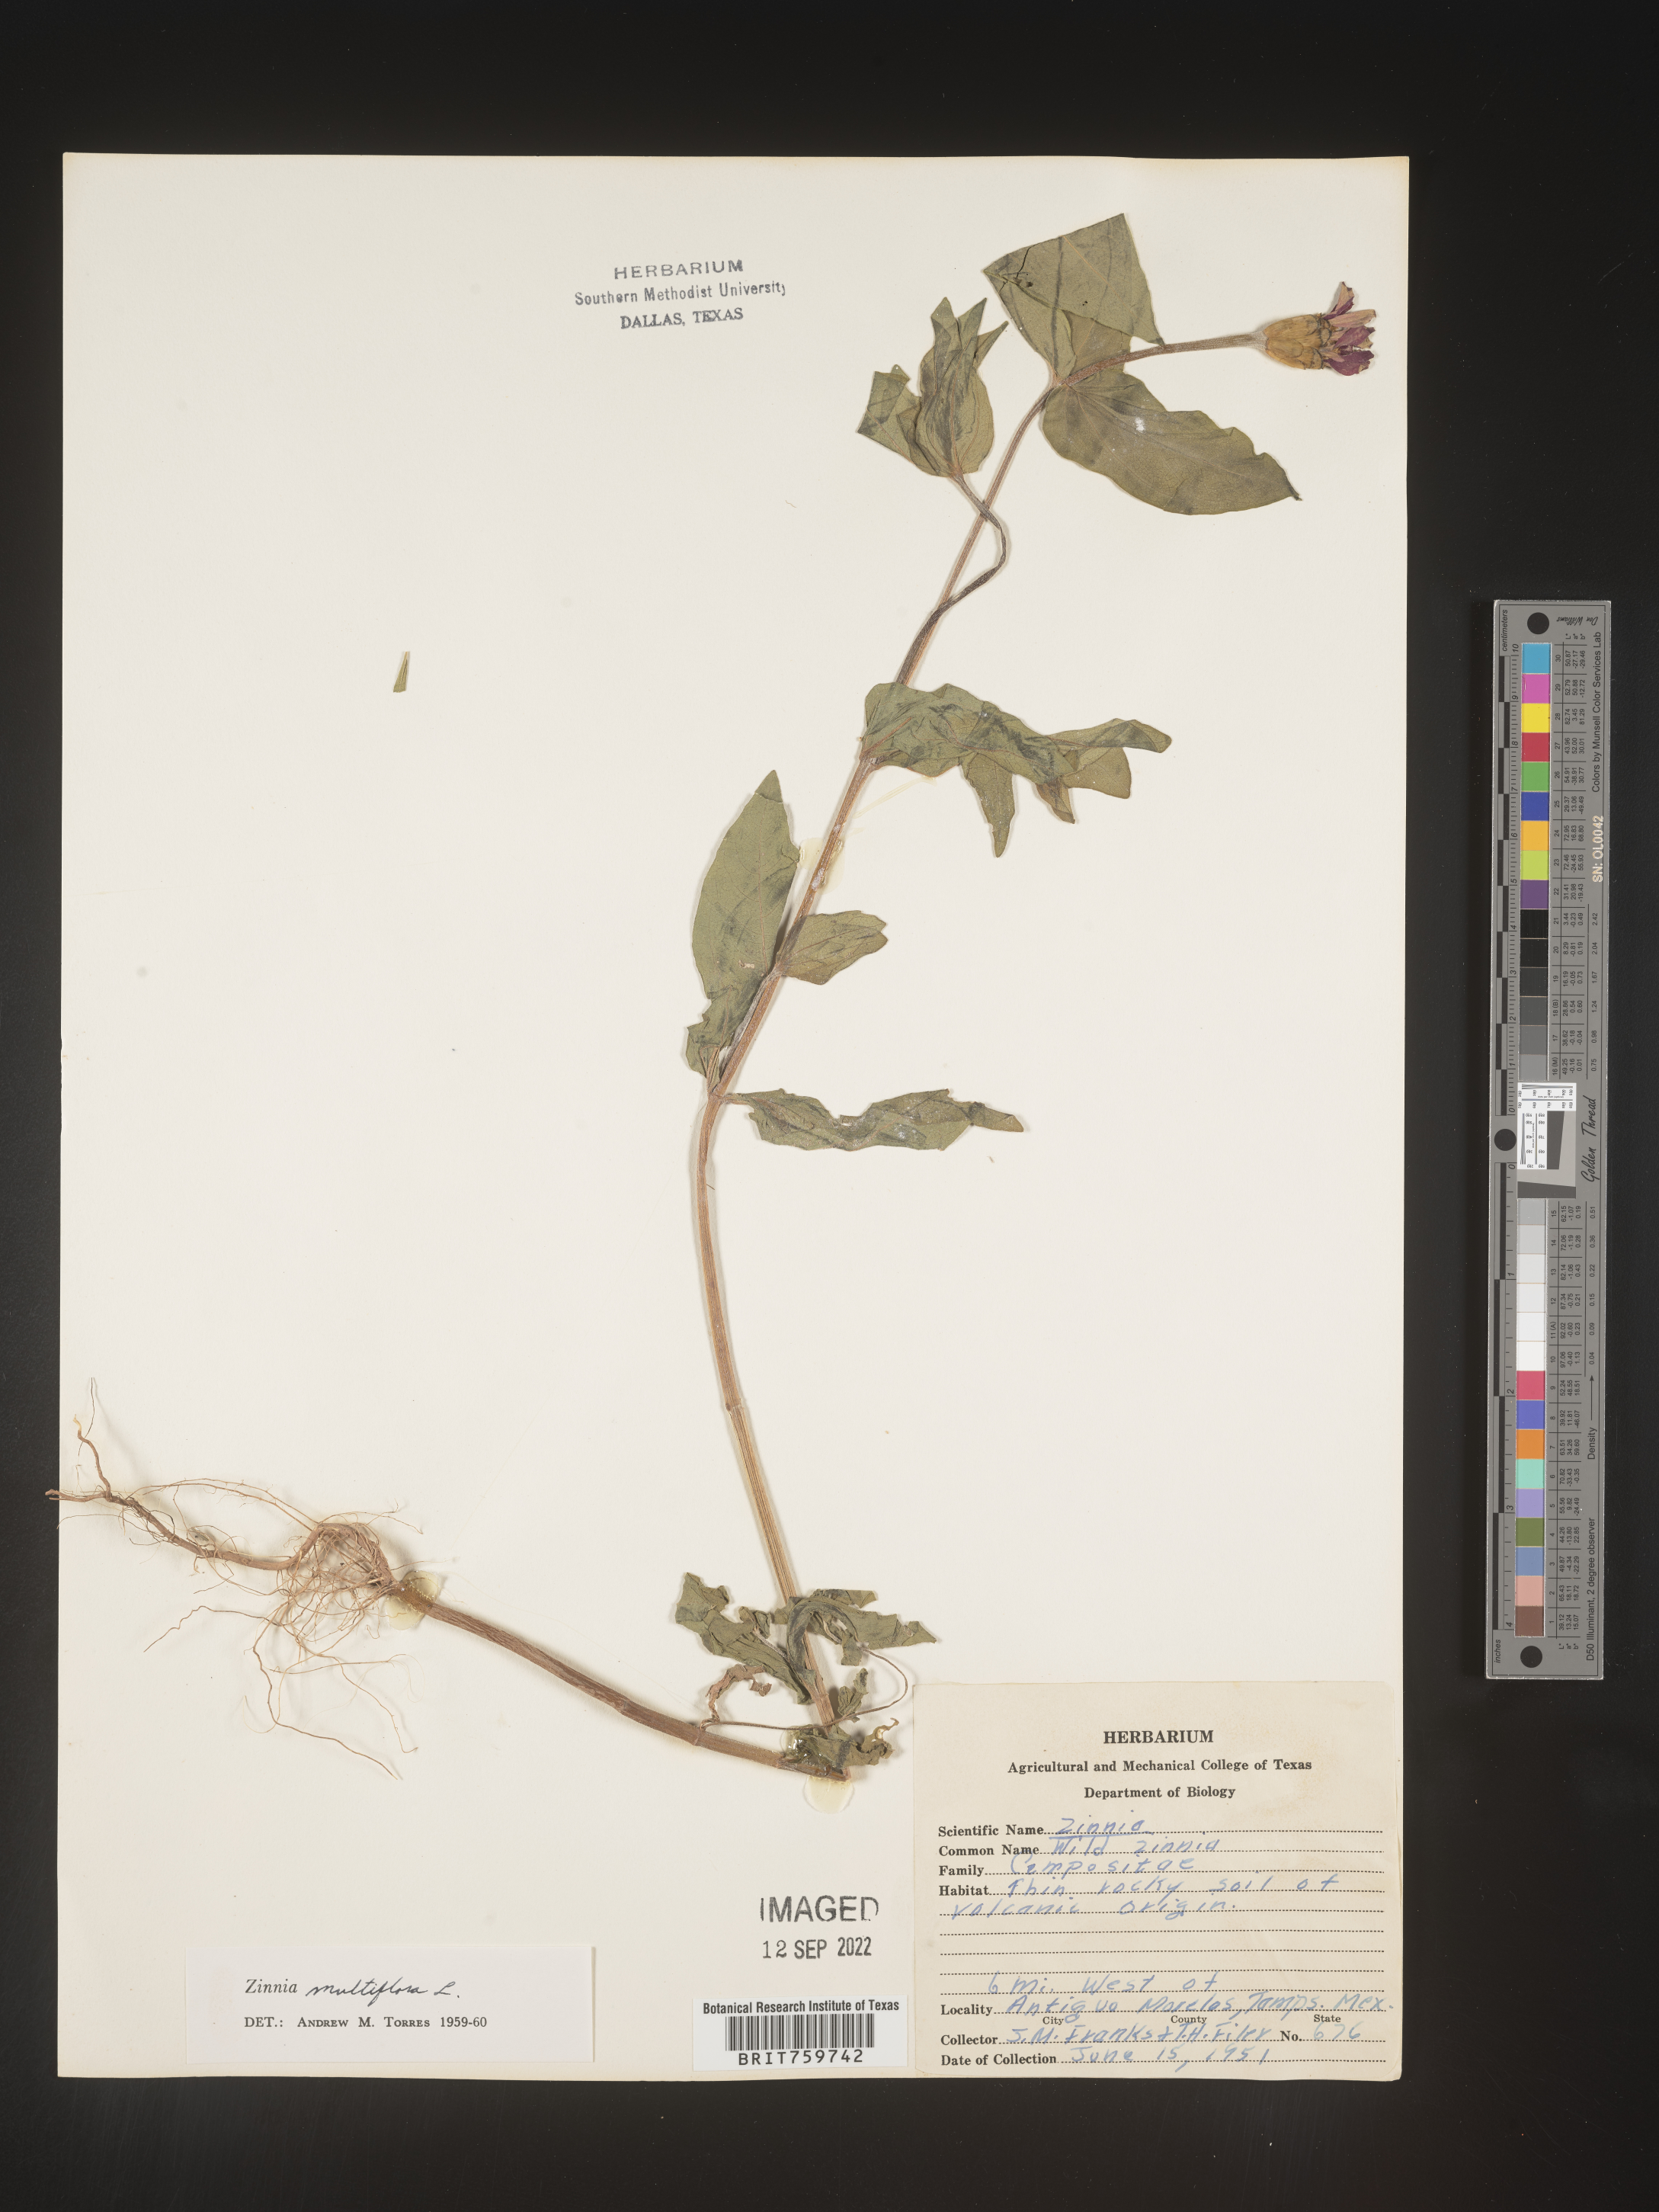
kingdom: Plantae
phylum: Tracheophyta
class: Magnoliopsida
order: Asterales
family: Asteraceae
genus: Zinnia
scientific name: Zinnia
